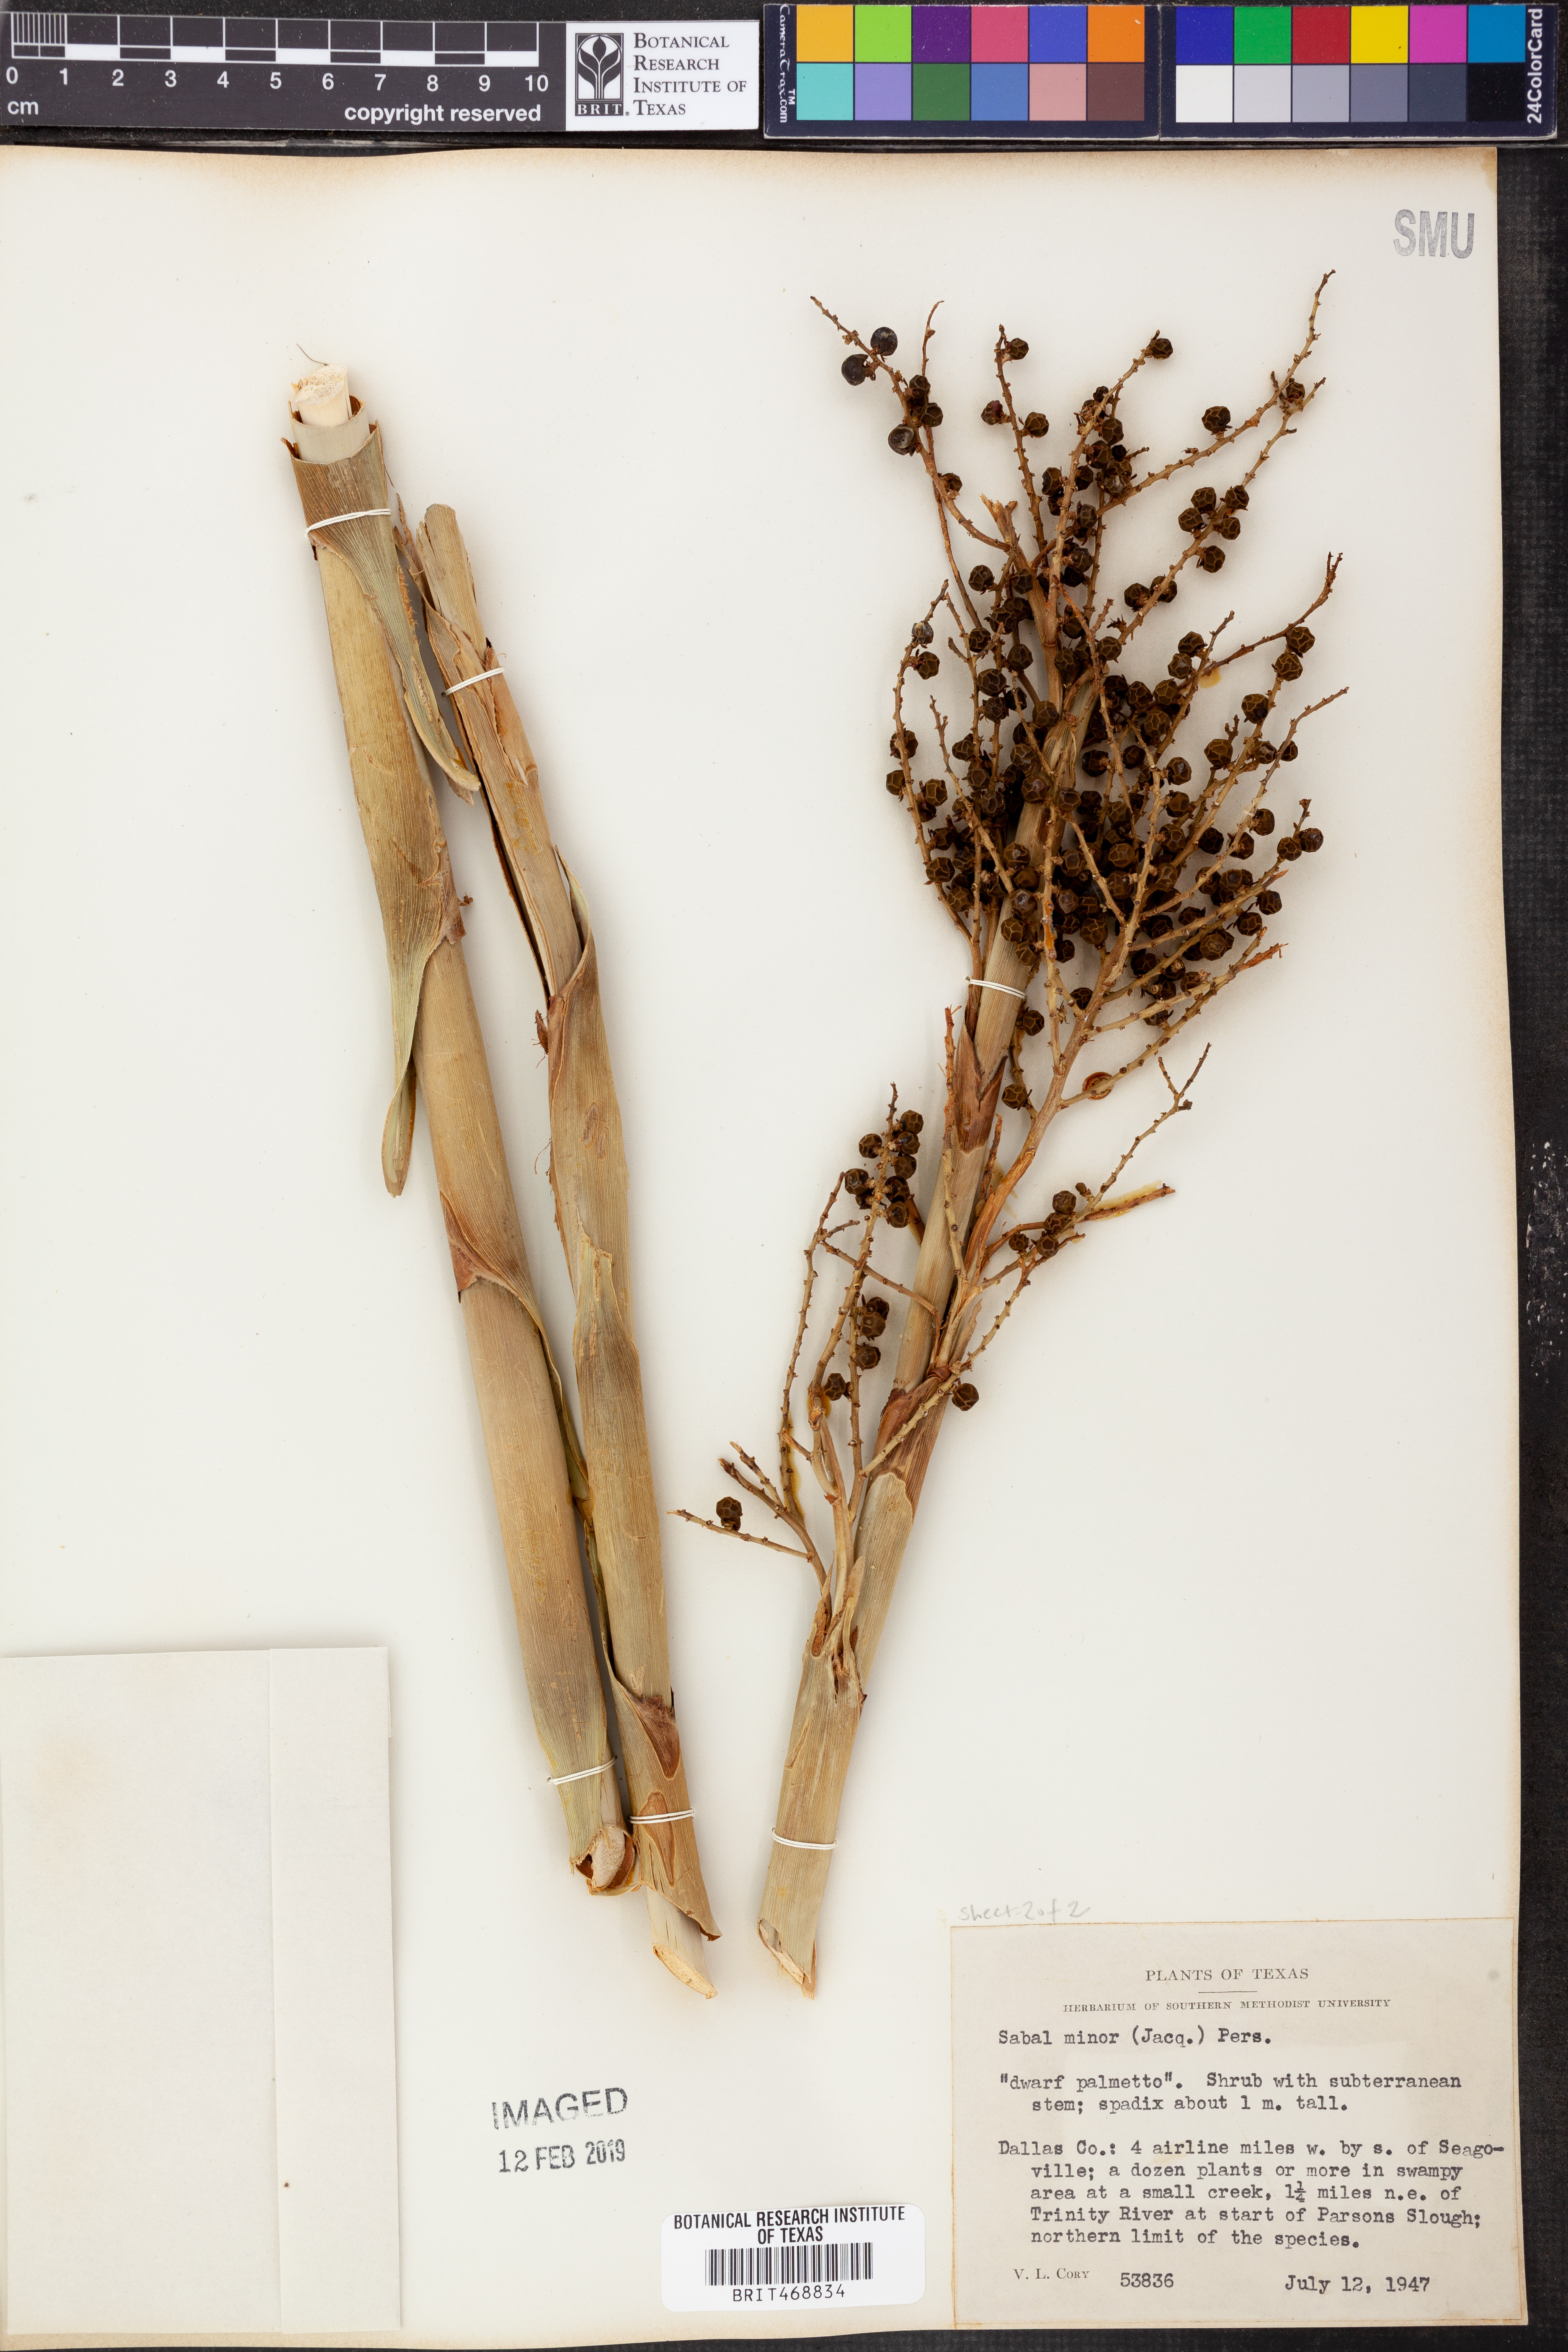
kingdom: Plantae
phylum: Tracheophyta
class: Liliopsida
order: Arecales
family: Arecaceae
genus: Sabal
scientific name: Sabal minor
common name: Dwarf palmetto
